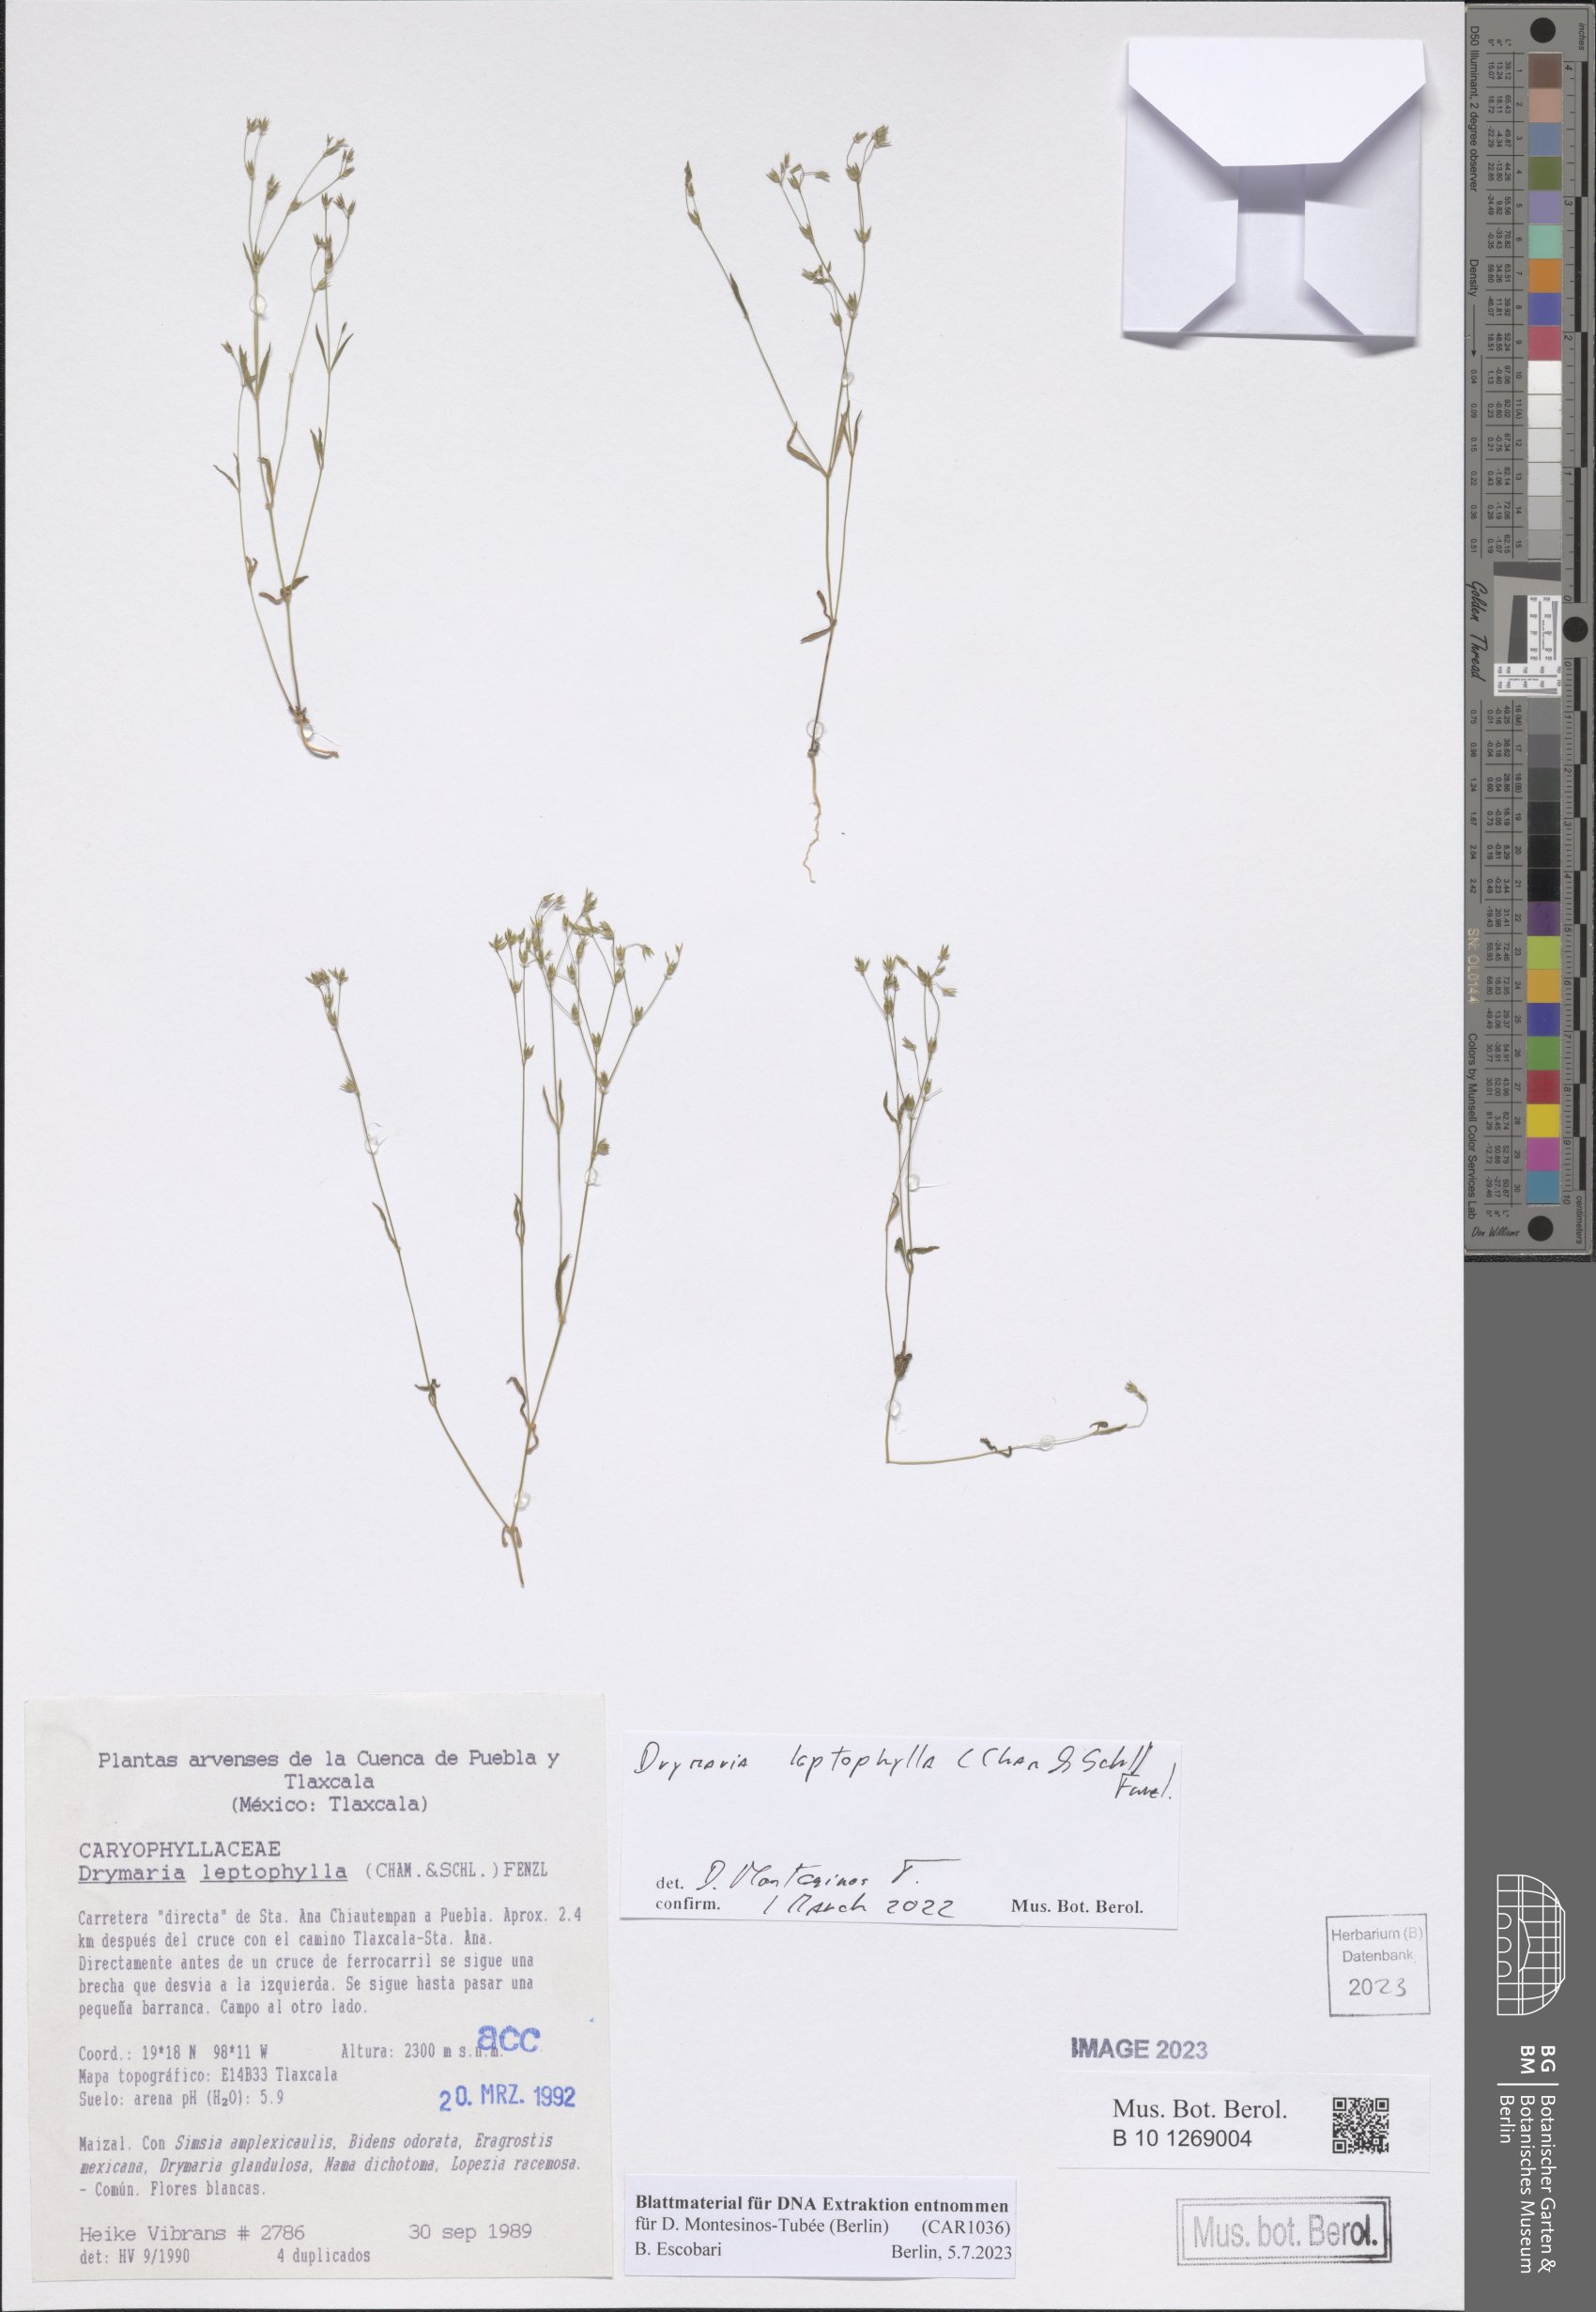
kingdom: Plantae
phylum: Tracheophyta
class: Magnoliopsida
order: Caryophyllales
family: Caryophyllaceae
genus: Drymaria
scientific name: Drymaria leptophylla
